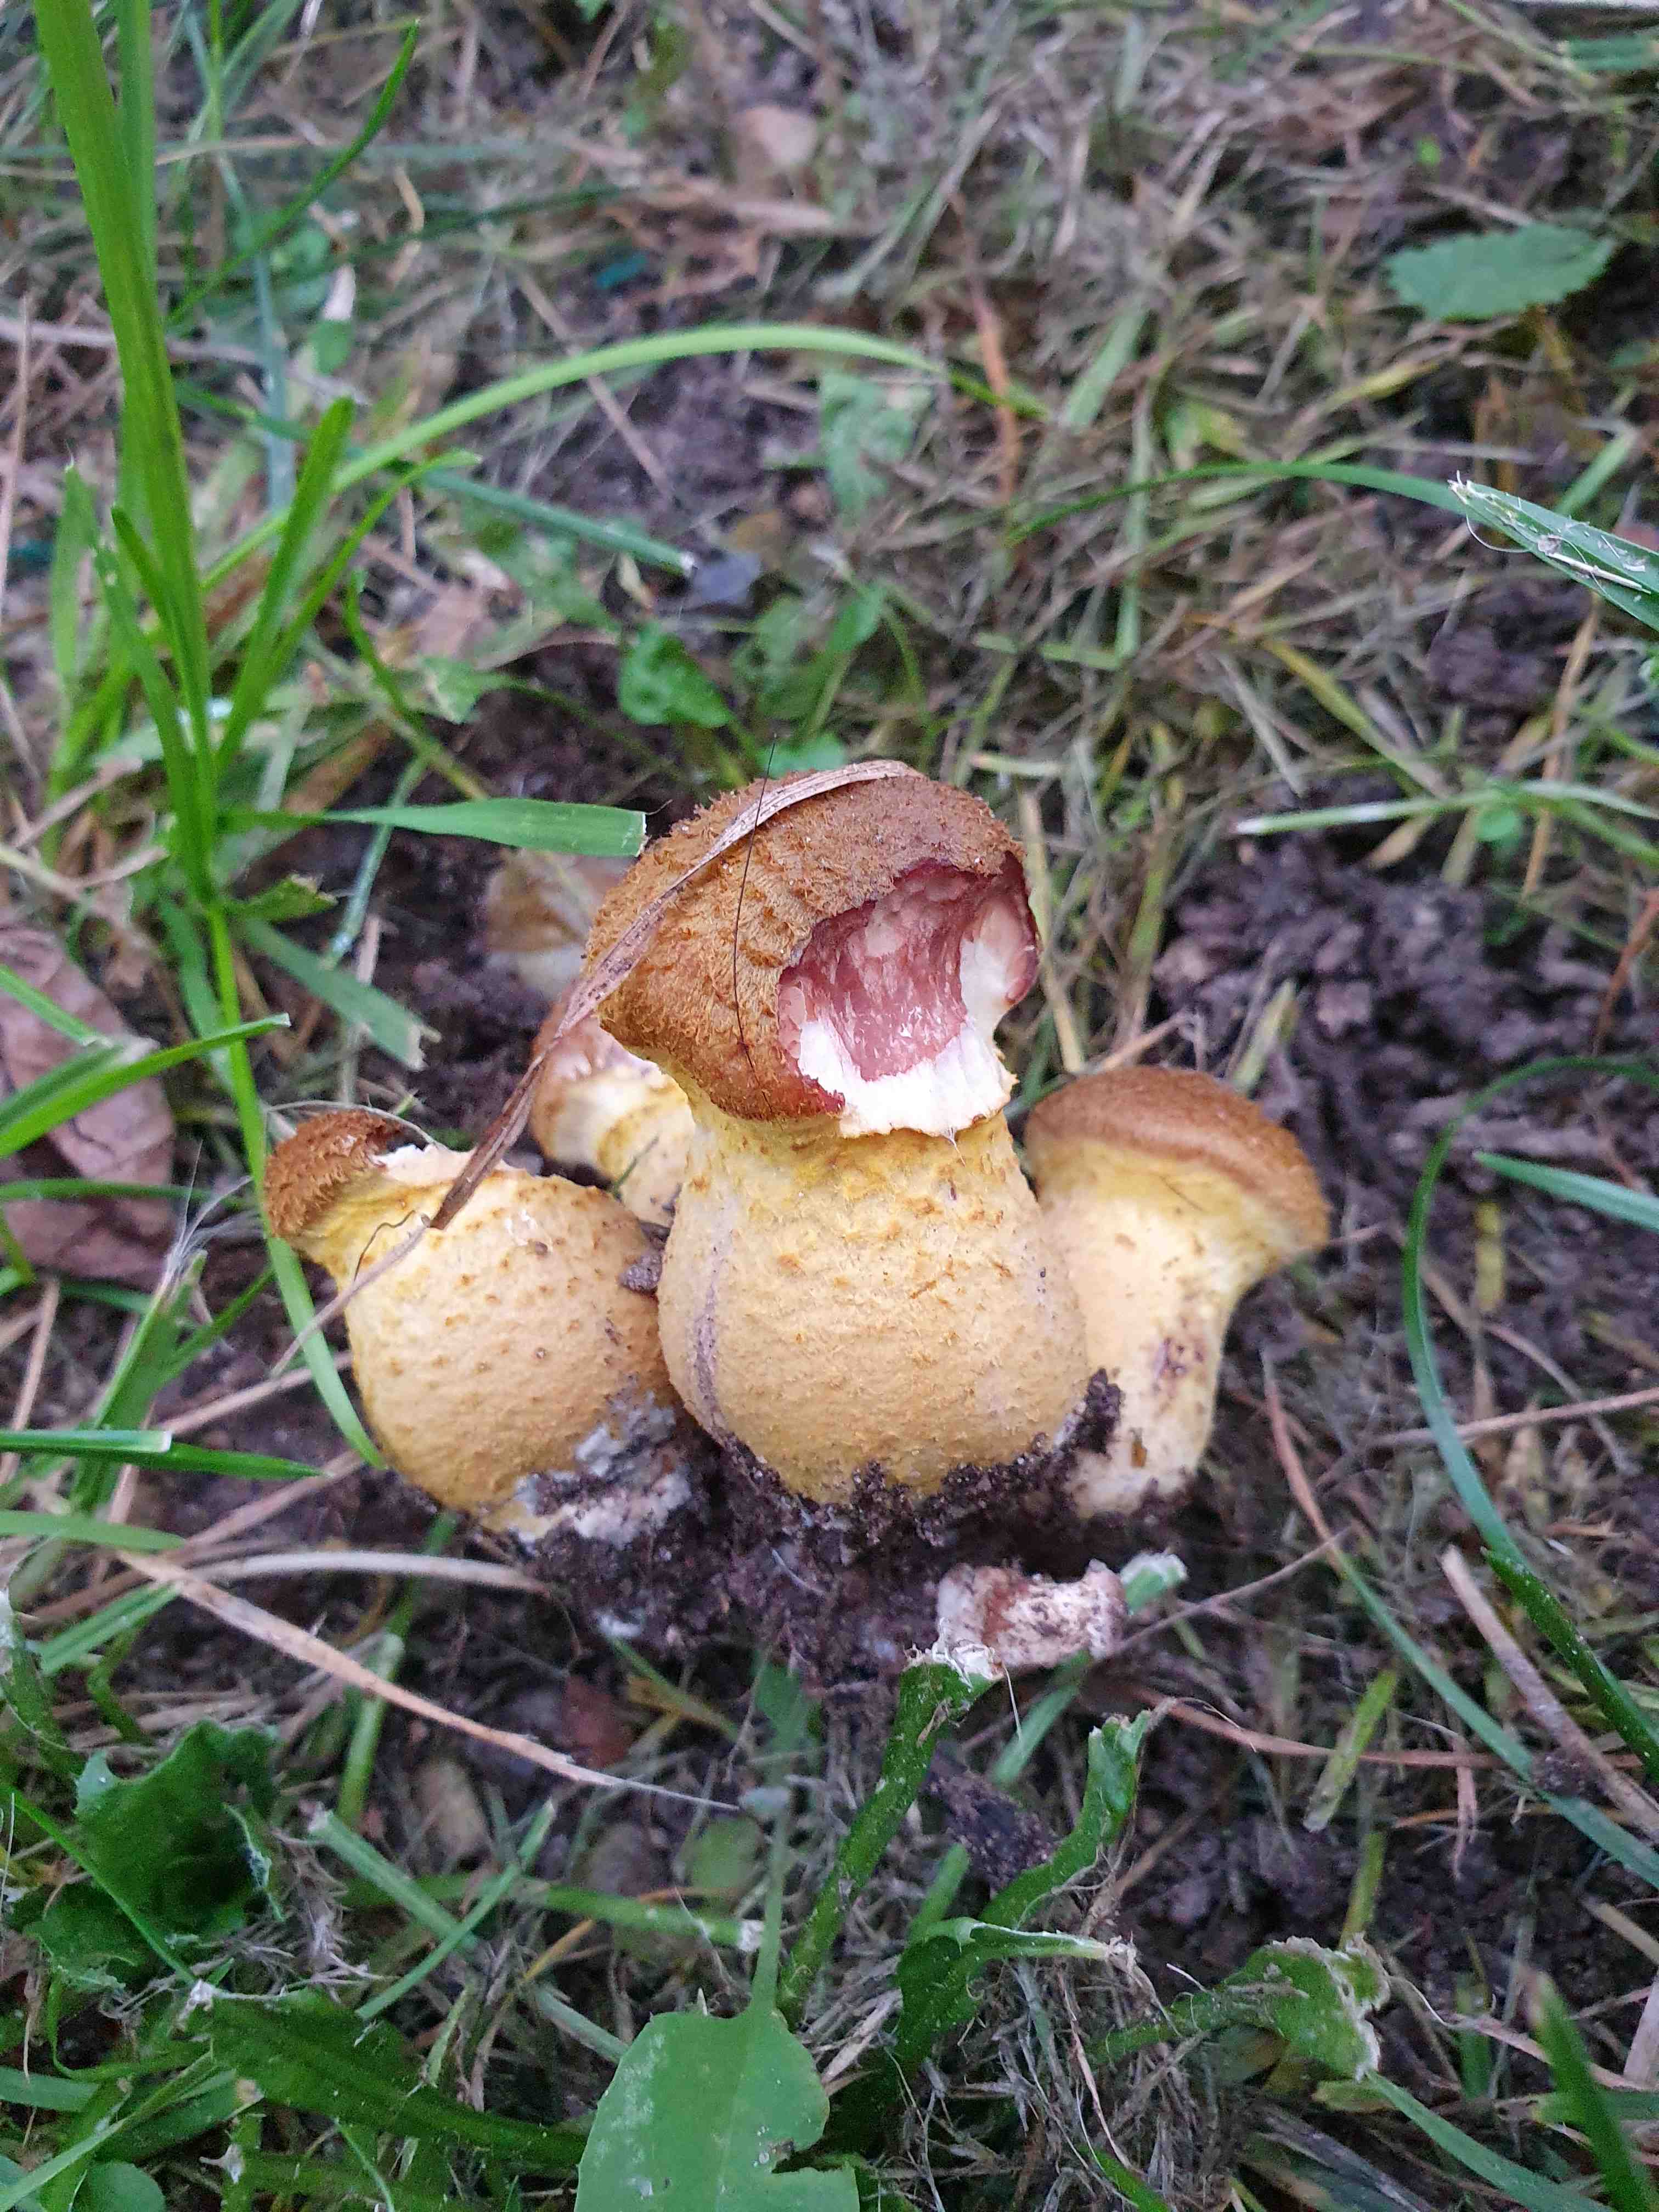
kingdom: Fungi
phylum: Basidiomycota
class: Agaricomycetes
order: Agaricales
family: Physalacriaceae
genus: Armillaria
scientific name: Armillaria lutea
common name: køllestokket honningsvamp
